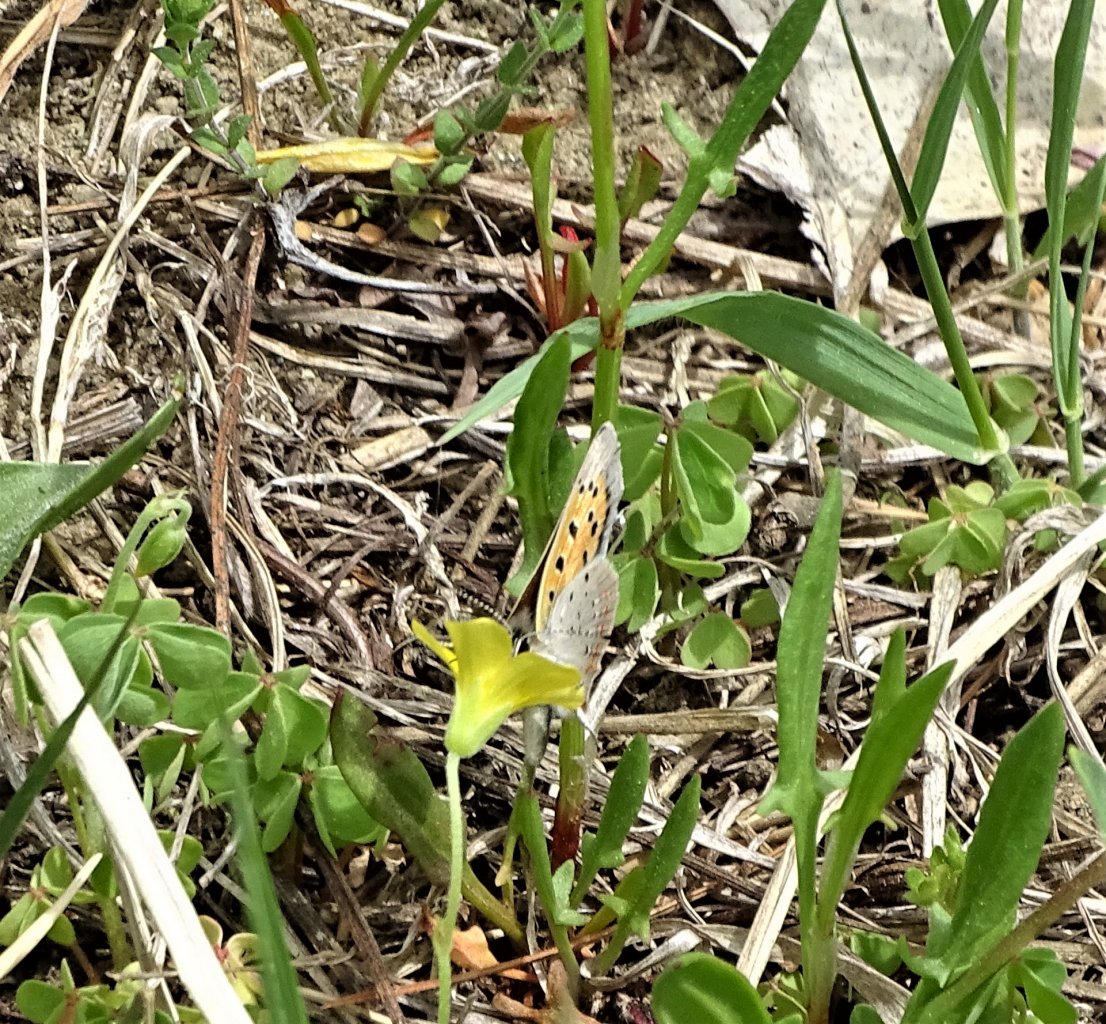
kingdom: Animalia
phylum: Arthropoda
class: Insecta
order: Lepidoptera
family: Lycaenidae
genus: Lycaena
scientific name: Lycaena phlaeas
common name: American Copper
